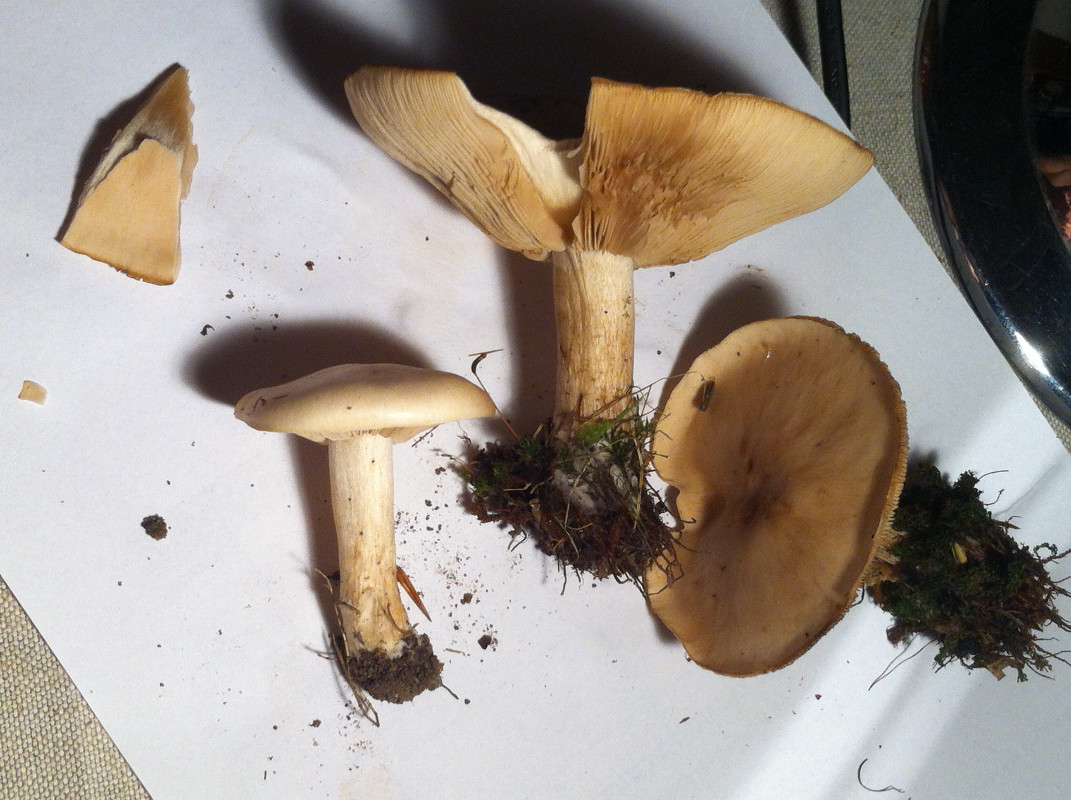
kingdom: Fungi
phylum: Basidiomycota
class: Agaricomycetes
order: Agaricales
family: Tricholomataceae
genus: Lepista
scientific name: Lepista irina
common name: violduftende hekseringshat
